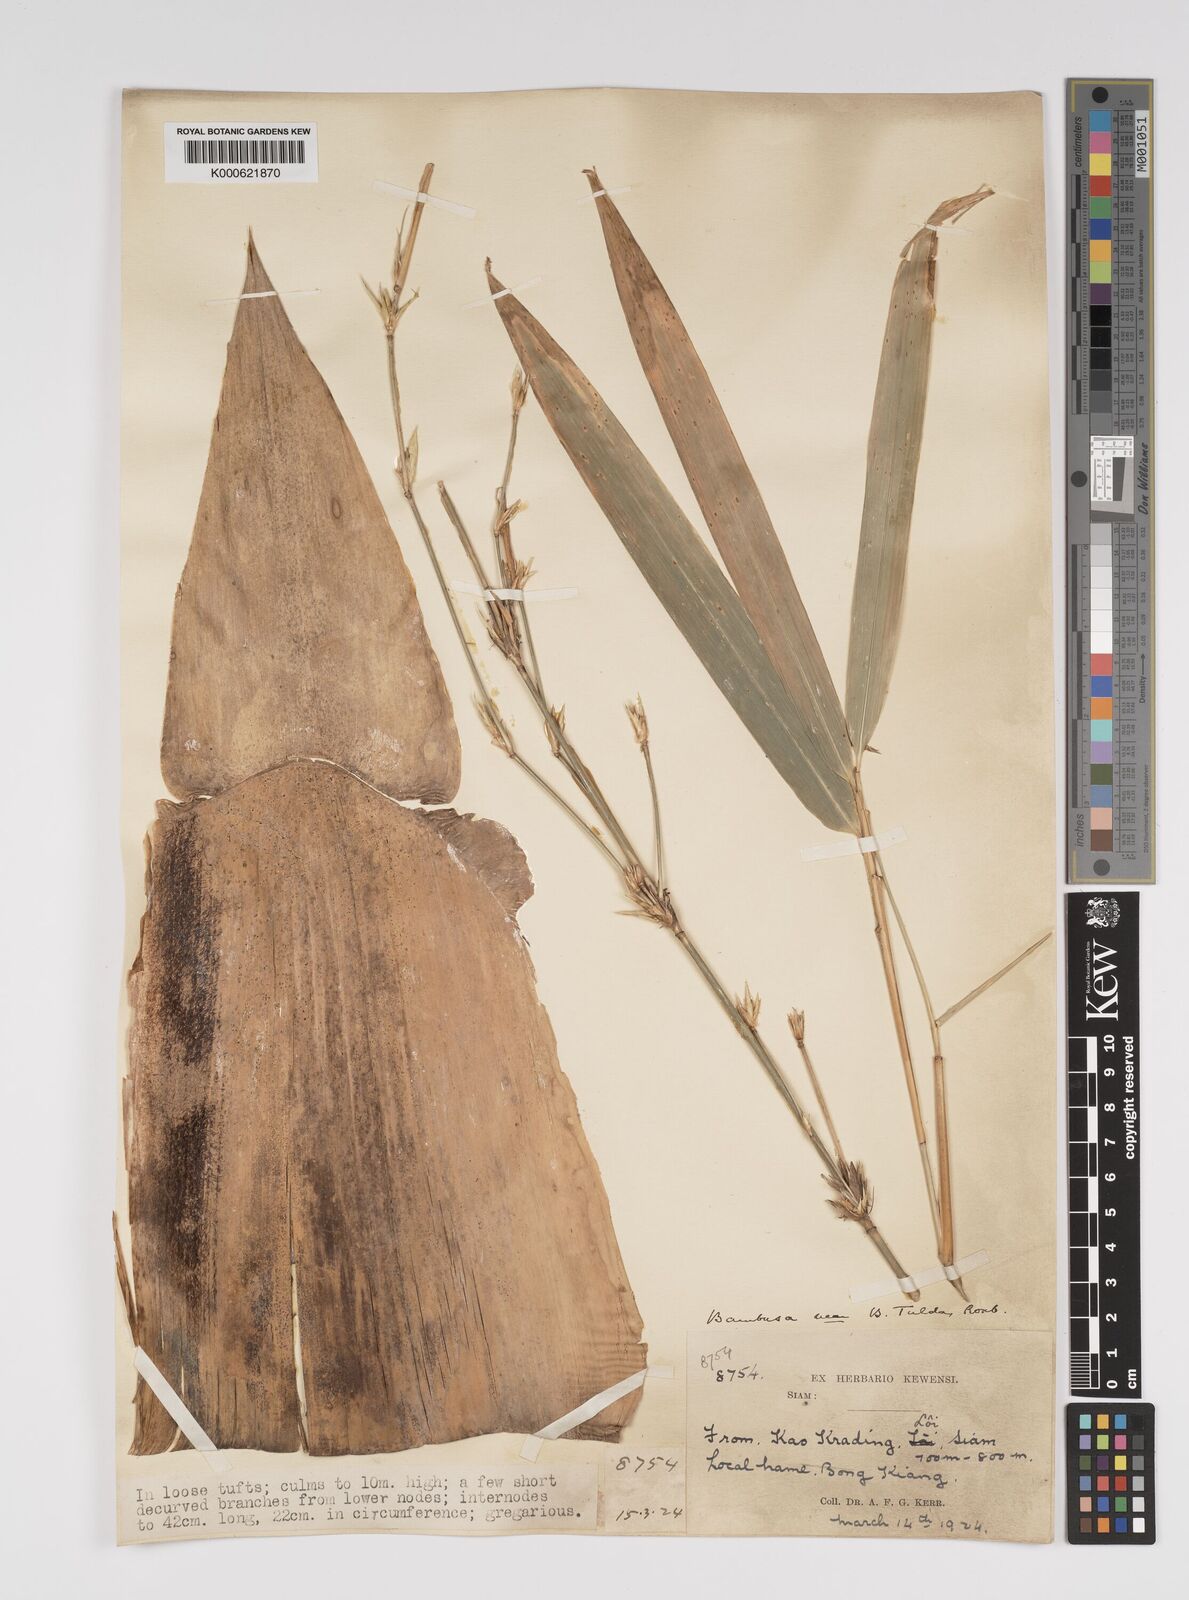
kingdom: Plantae
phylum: Tracheophyta
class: Liliopsida
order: Poales
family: Poaceae
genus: Bambusa
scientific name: Bambusa tulda
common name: Bengal bamboo
